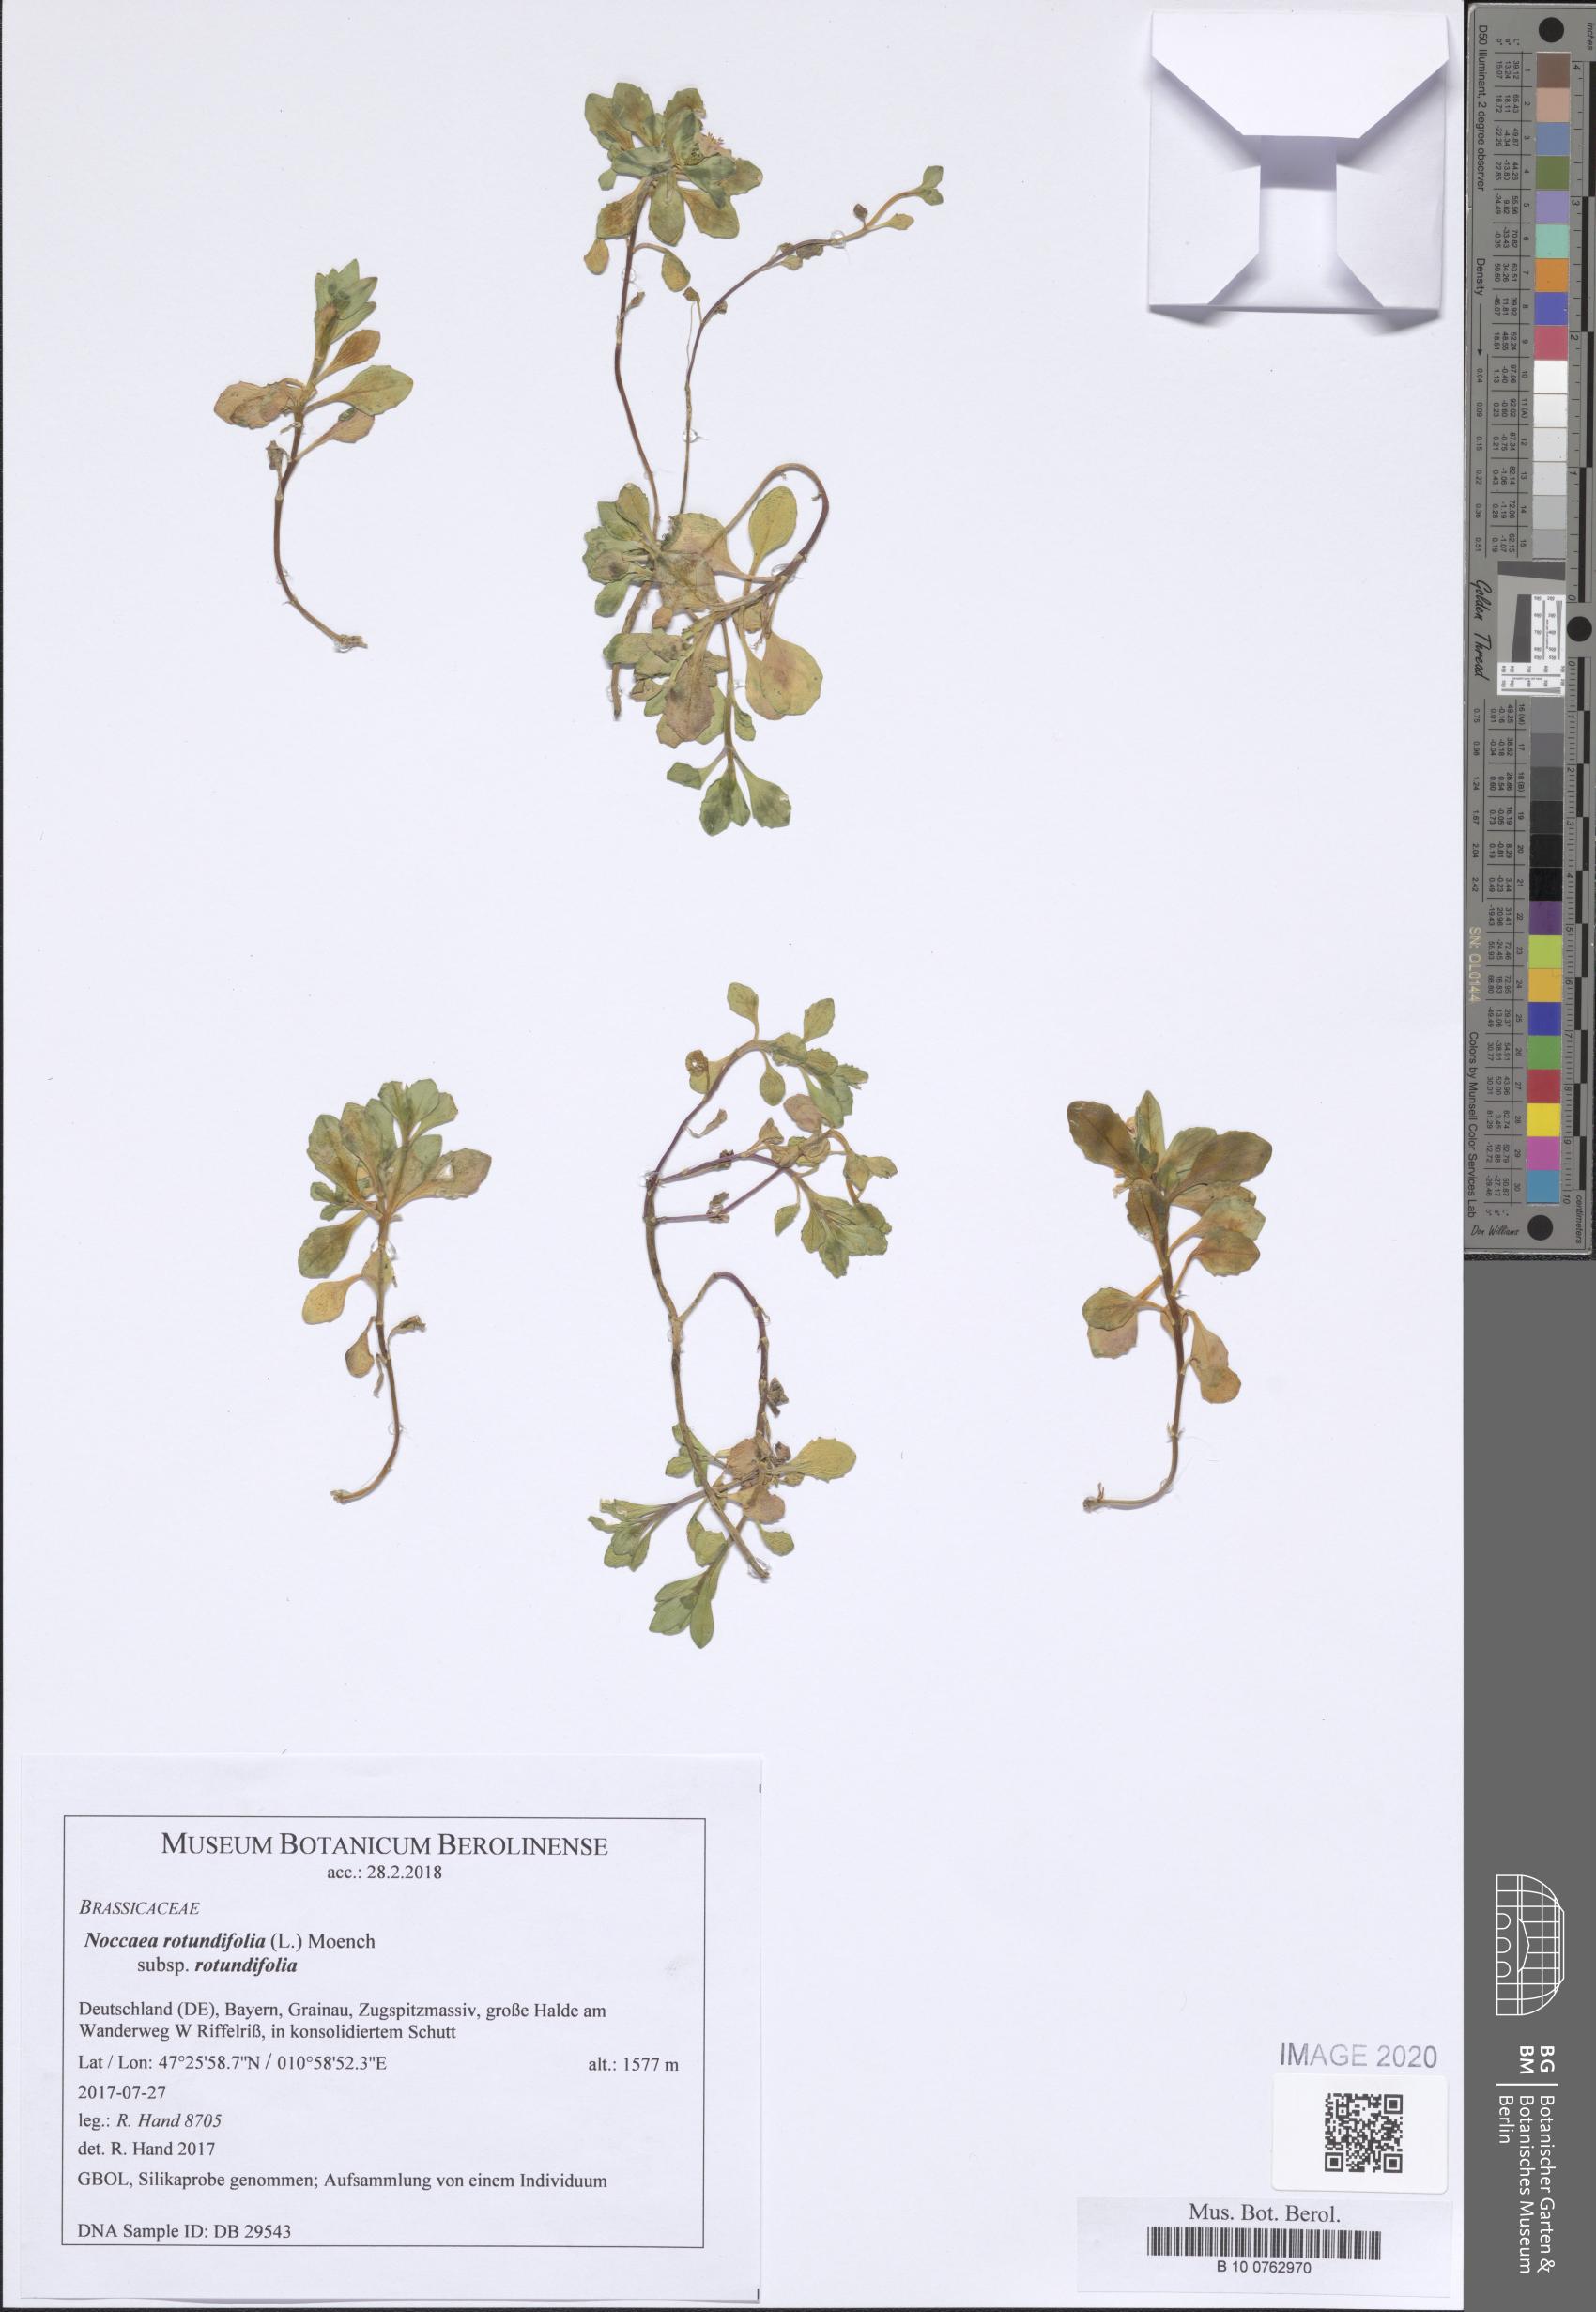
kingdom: Plantae
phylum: Tracheophyta
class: Magnoliopsida
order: Brassicales
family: Brassicaceae
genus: Noccaea
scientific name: Noccaea rotundifolia
